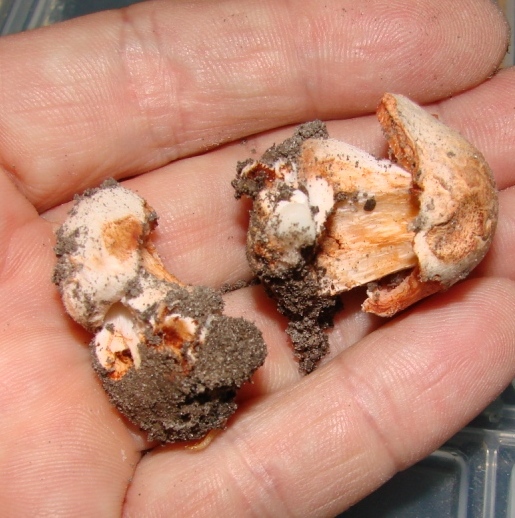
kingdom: Fungi
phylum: Basidiomycota
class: Agaricomycetes
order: Agaricales
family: Inocybaceae
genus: Inosperma
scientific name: Inosperma erubescens
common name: giftig trævlhat
